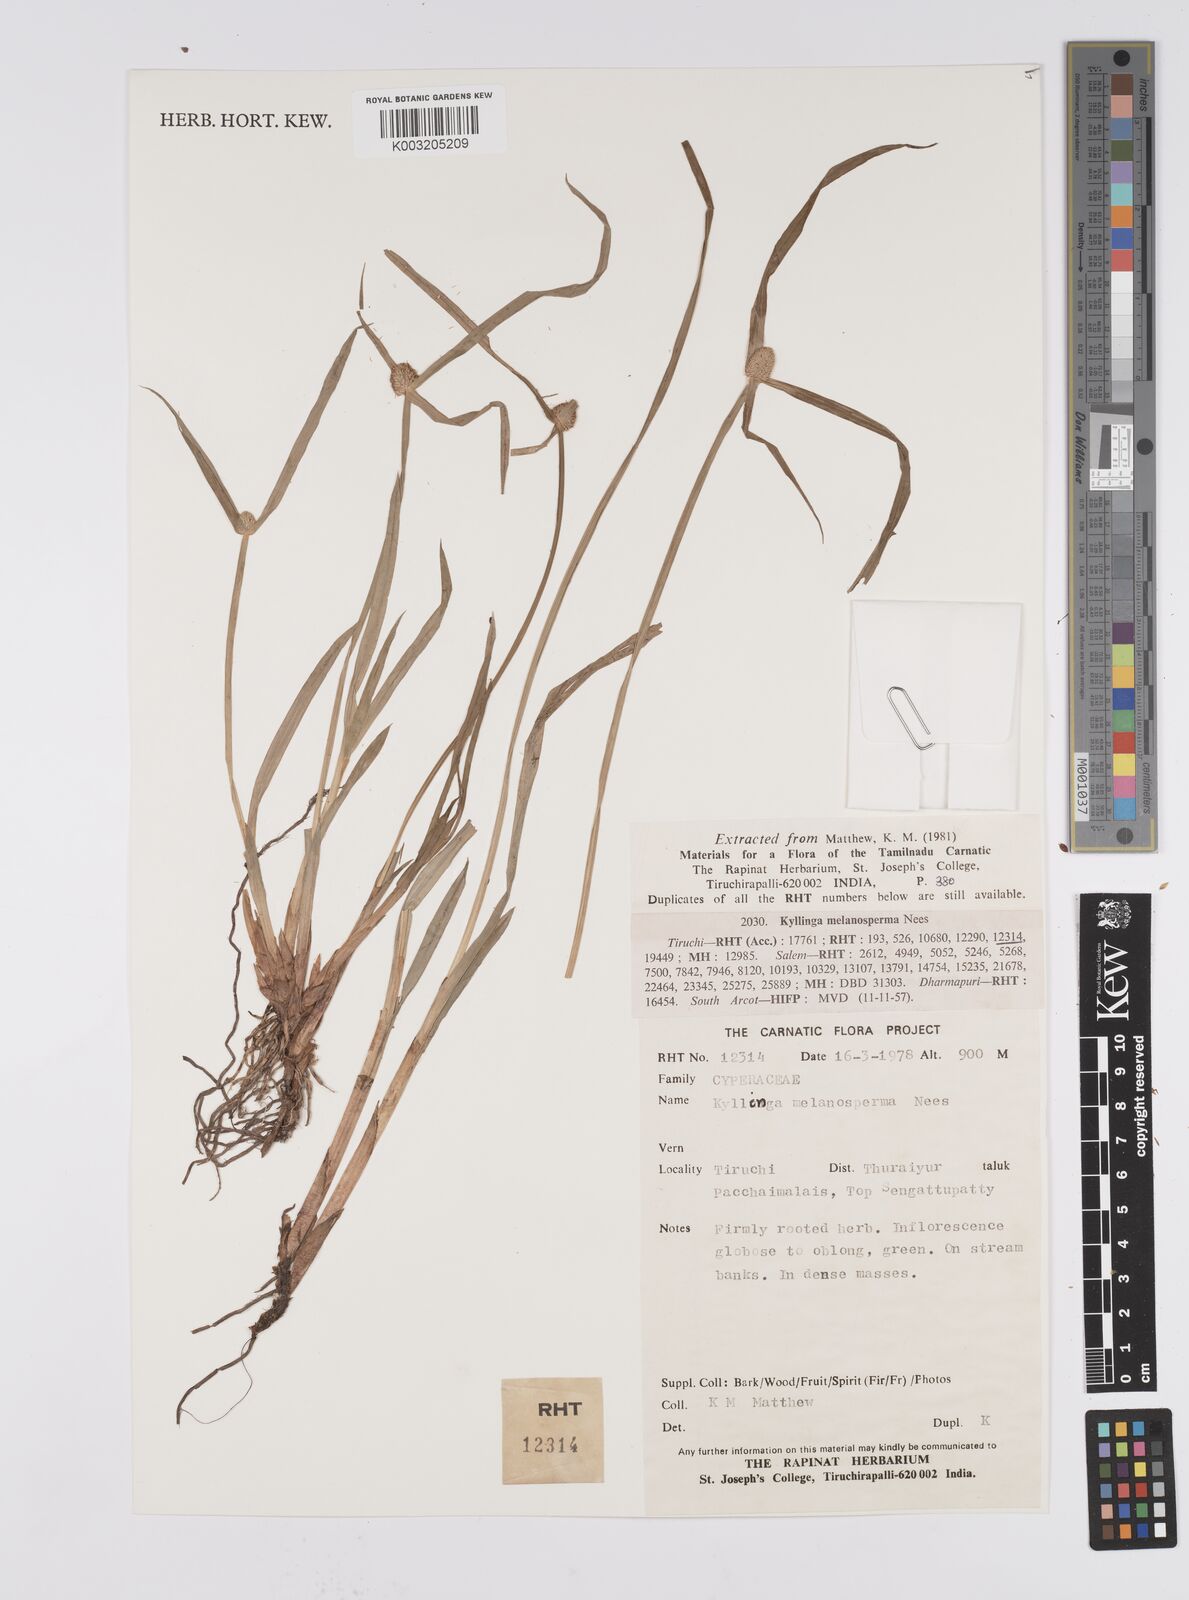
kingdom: Plantae
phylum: Tracheophyta
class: Liliopsida
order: Poales
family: Cyperaceae
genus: Cyperus
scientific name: Cyperus melanospermus
